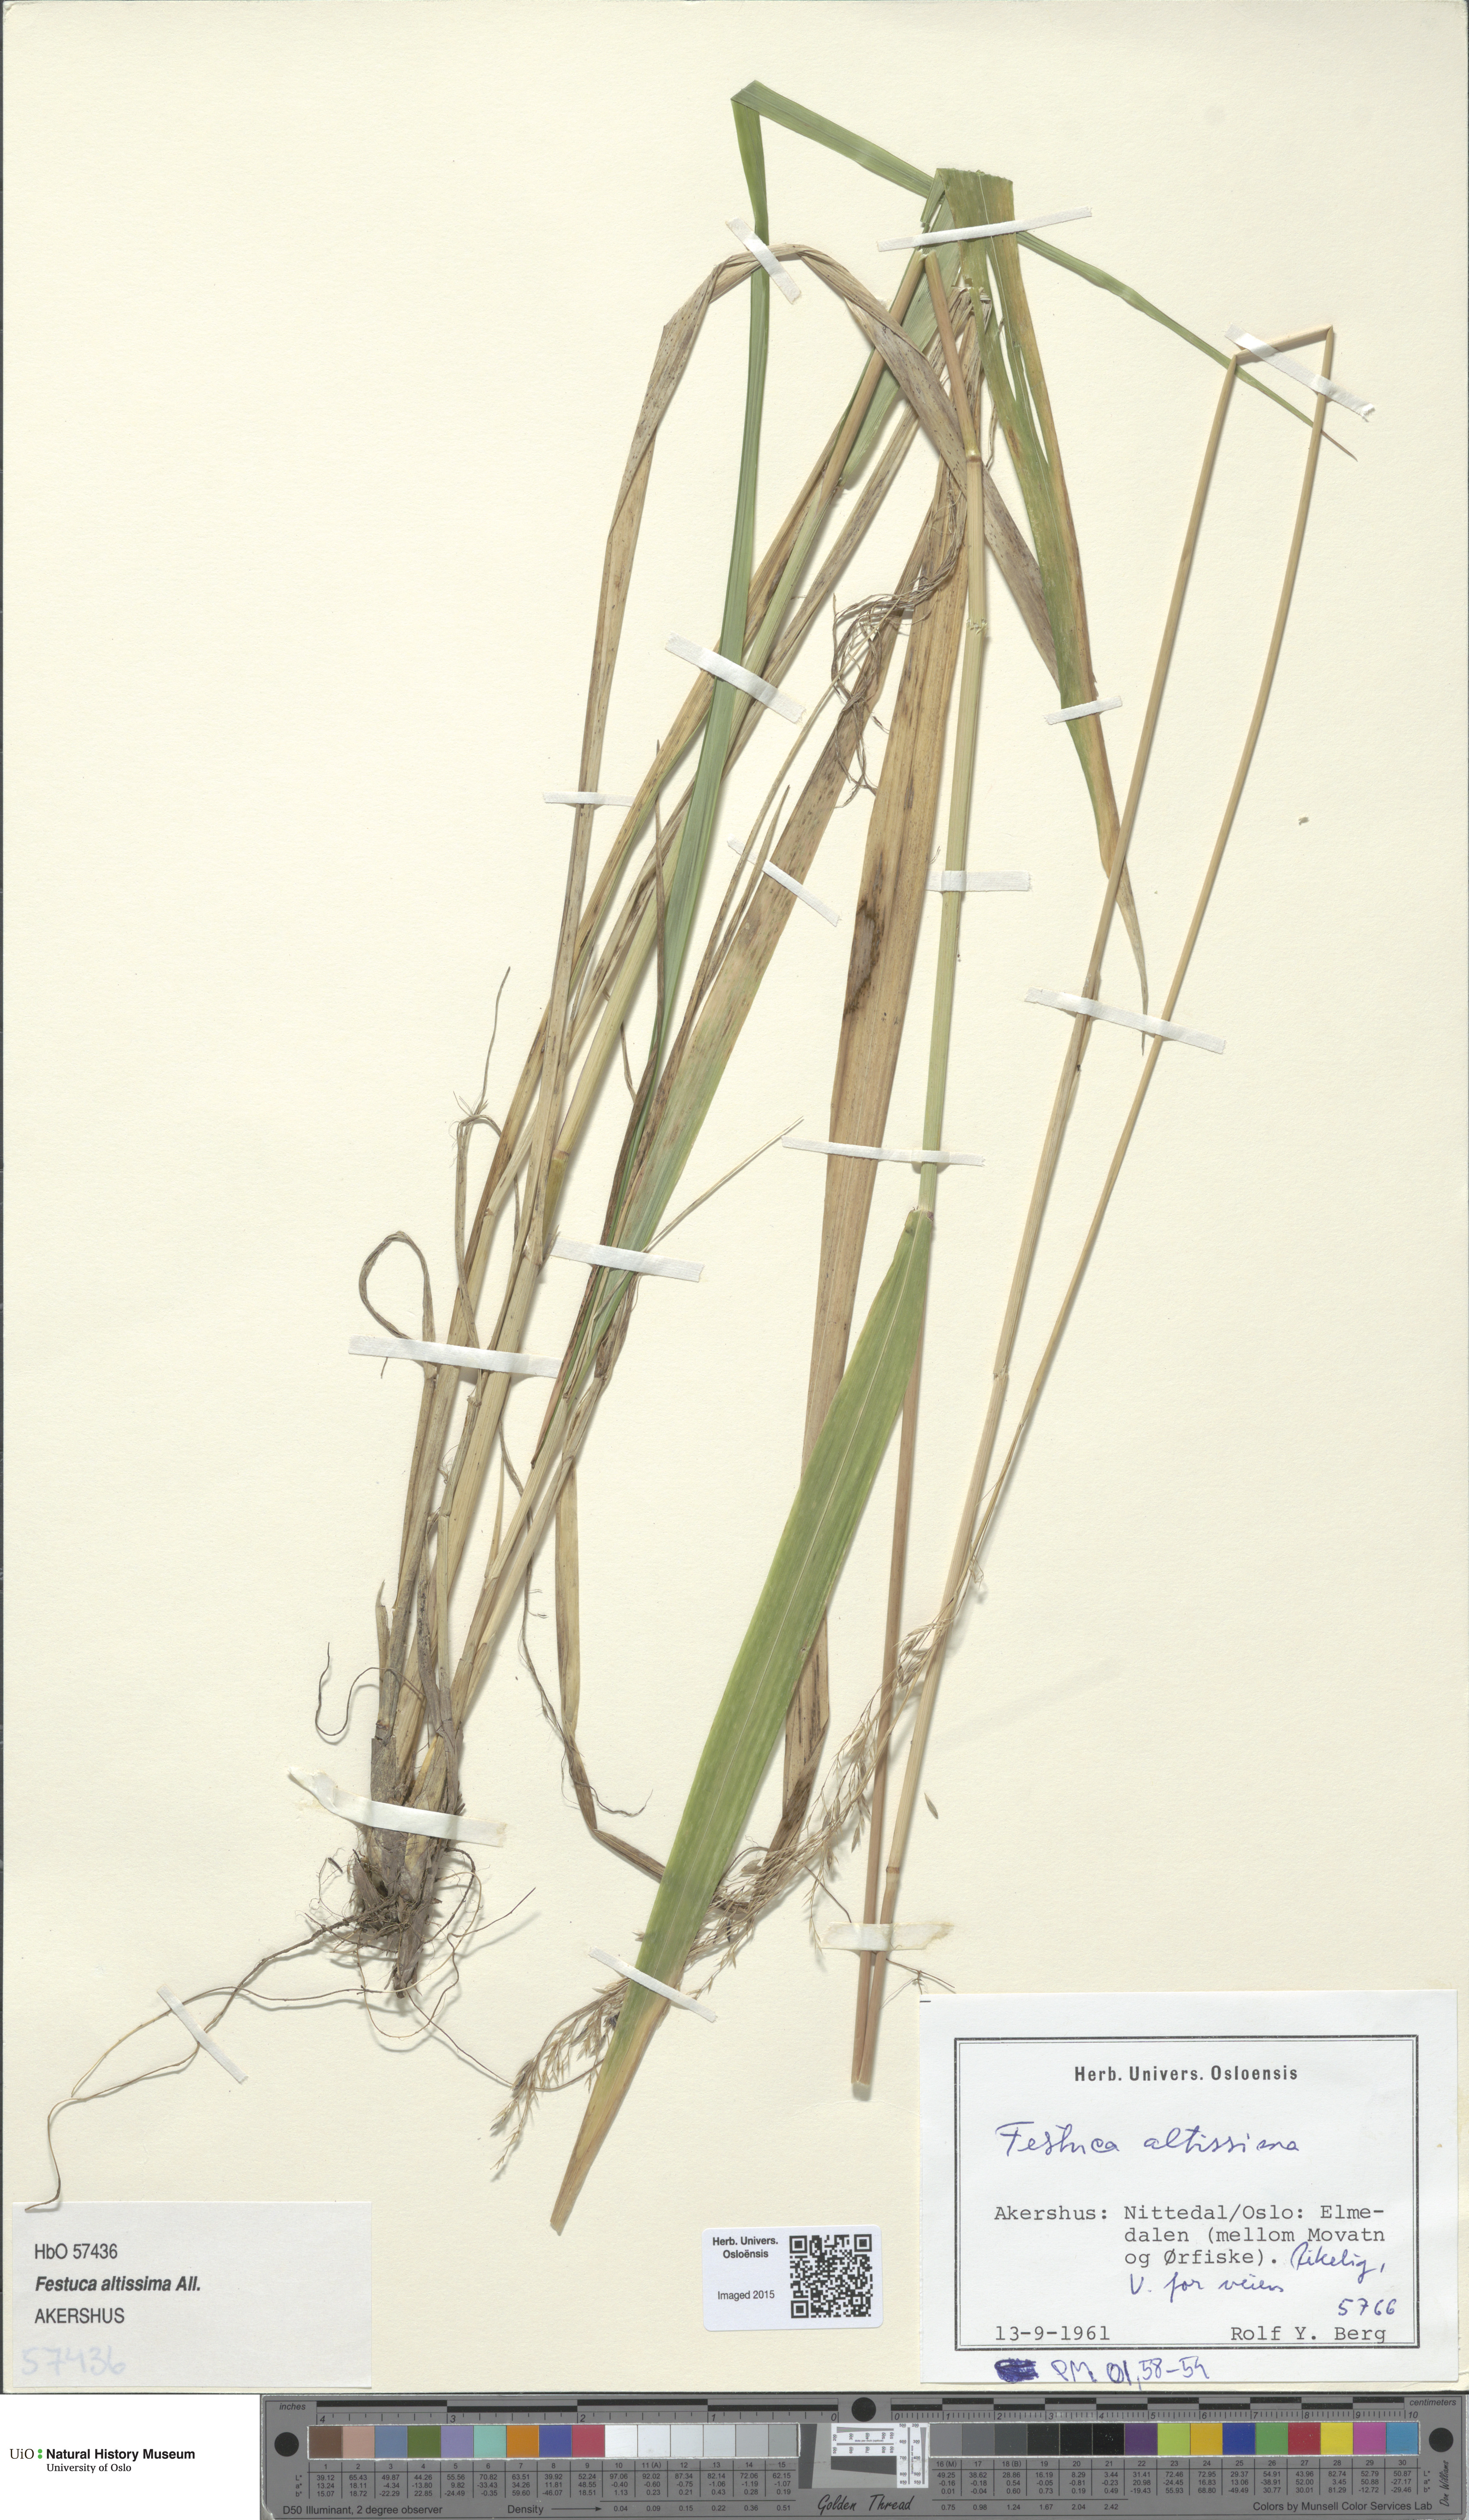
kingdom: Plantae
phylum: Tracheophyta
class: Liliopsida
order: Poales
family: Poaceae
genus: Festuca
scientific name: Festuca altissima
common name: Wood fescue
